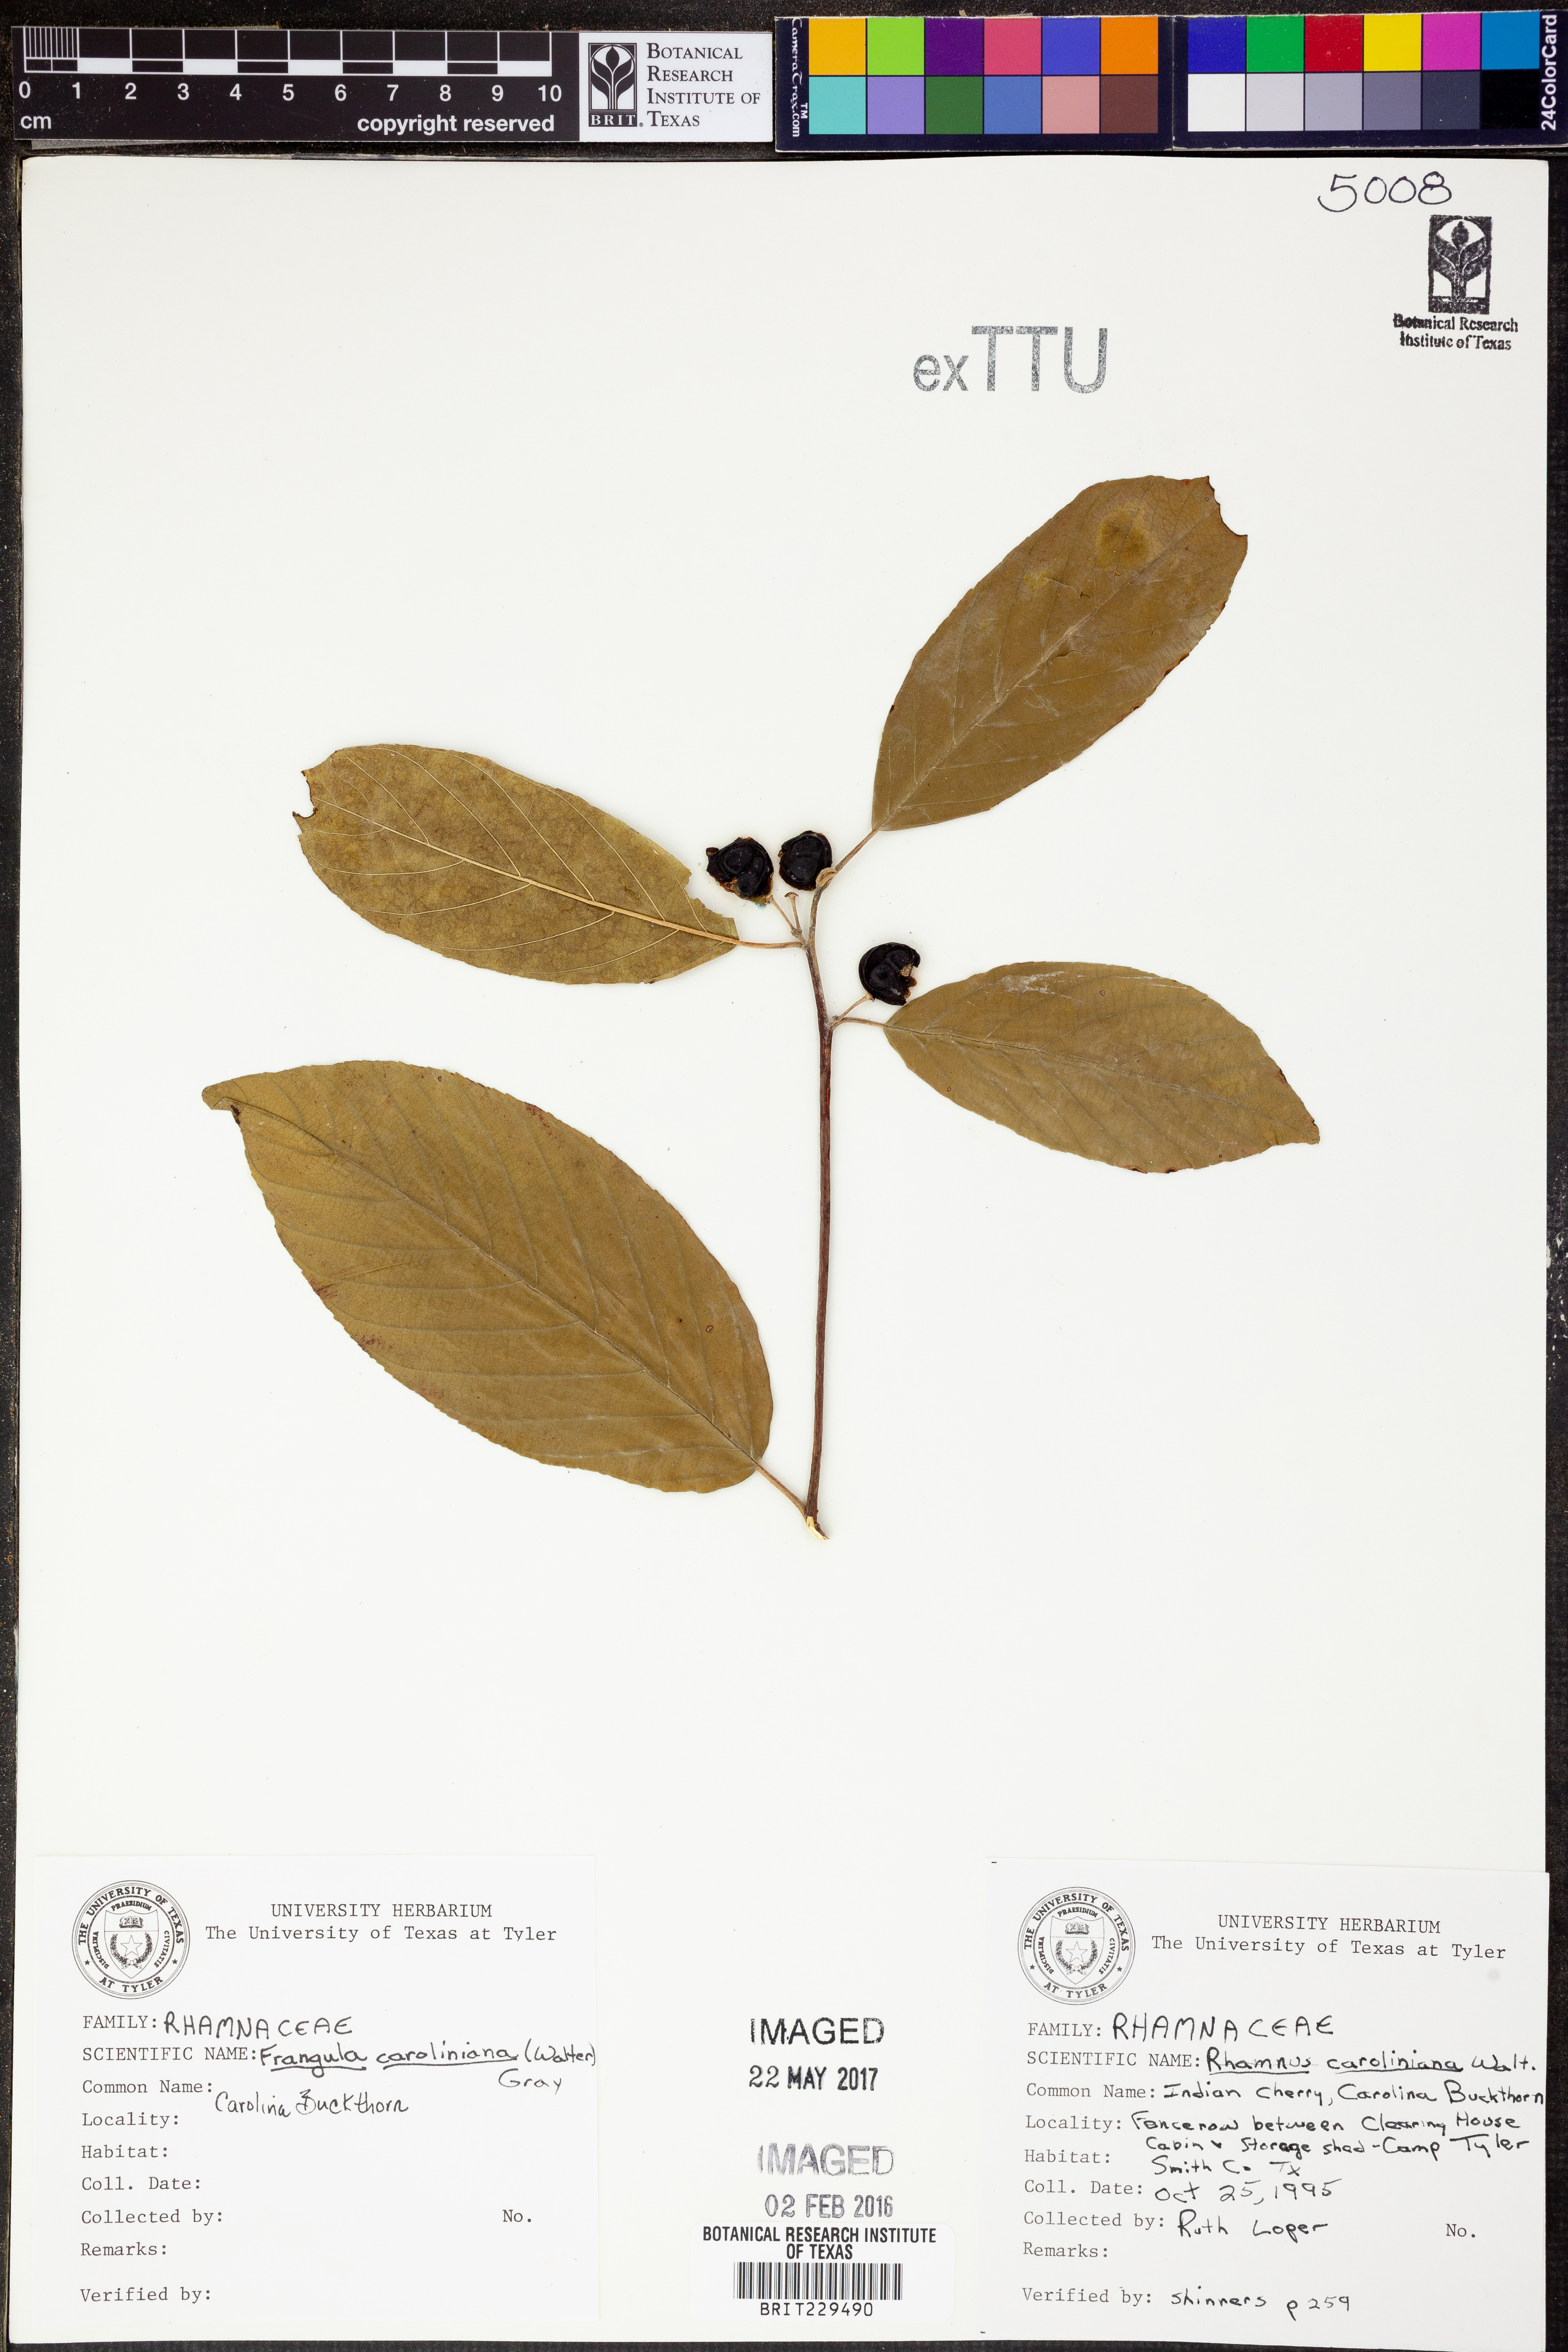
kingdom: Plantae
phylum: Tracheophyta
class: Magnoliopsida
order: Rosales
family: Rhamnaceae
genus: Frangula
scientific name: Frangula caroliniana
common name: Carolina buckthorn
